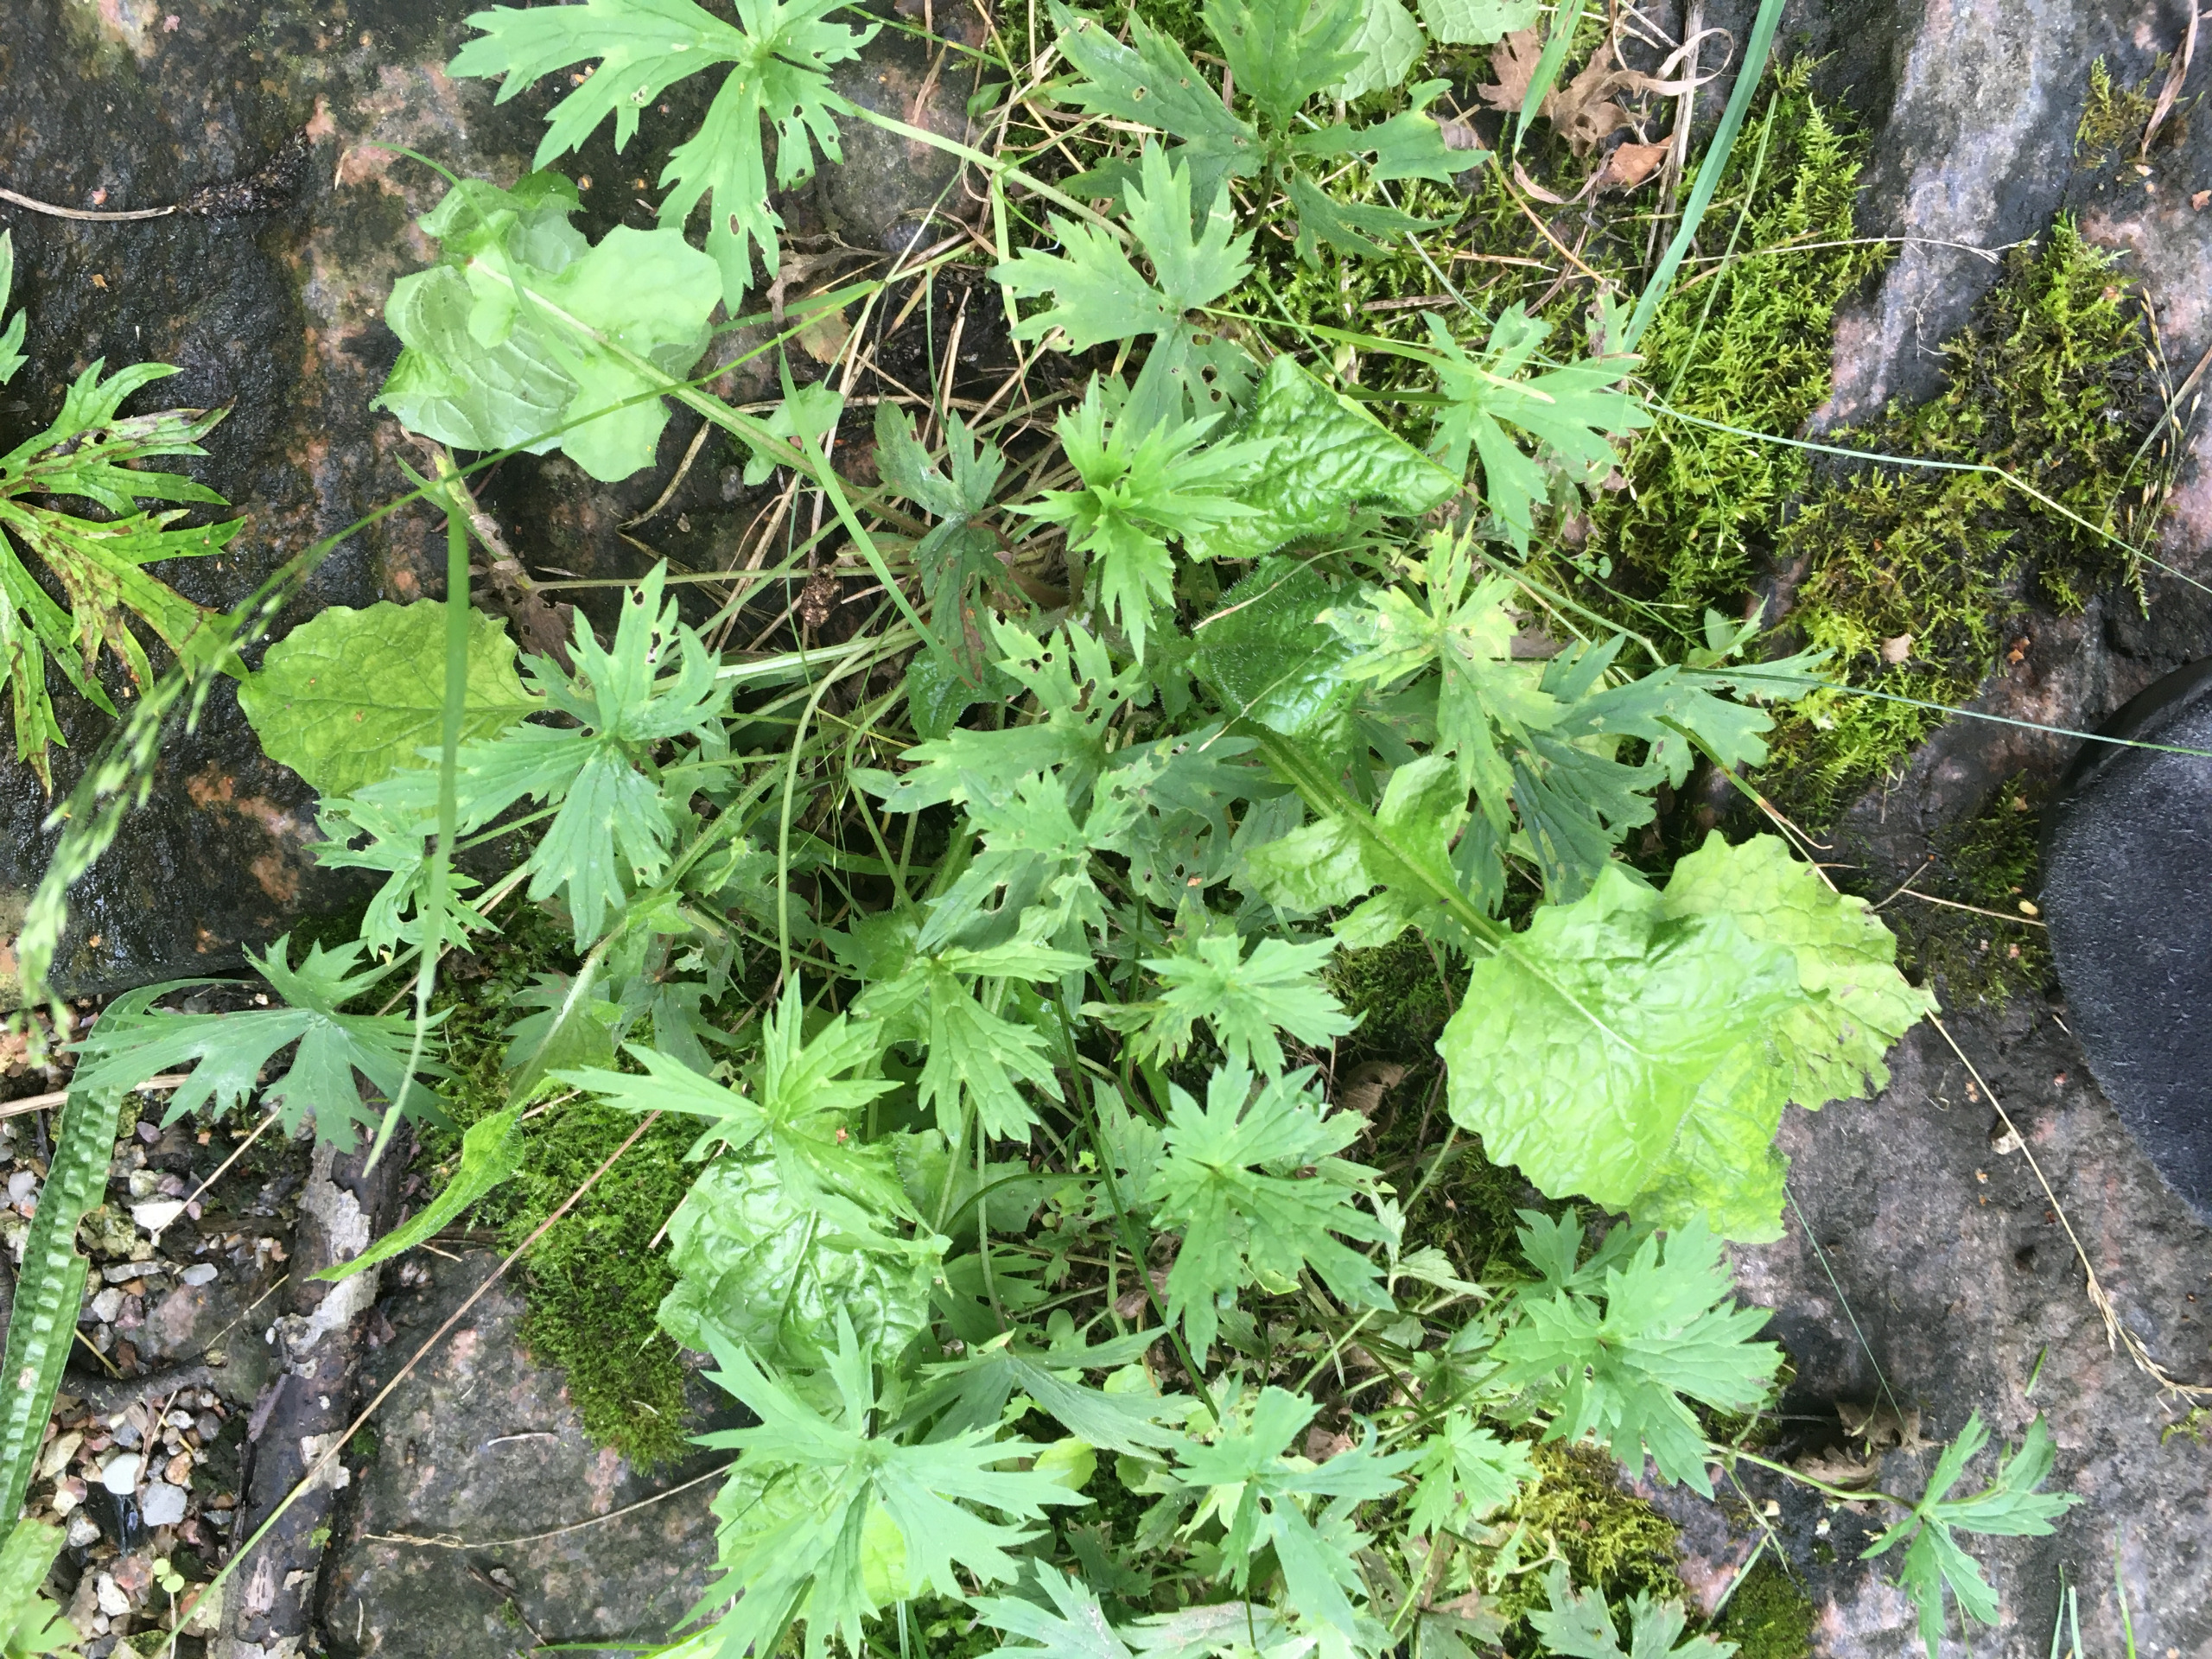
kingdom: Plantae
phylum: Tracheophyta
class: Magnoliopsida
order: Ranunculales
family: Ranunculaceae
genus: Ranunculus
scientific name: Ranunculus acris
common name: Bidende ranunkel
